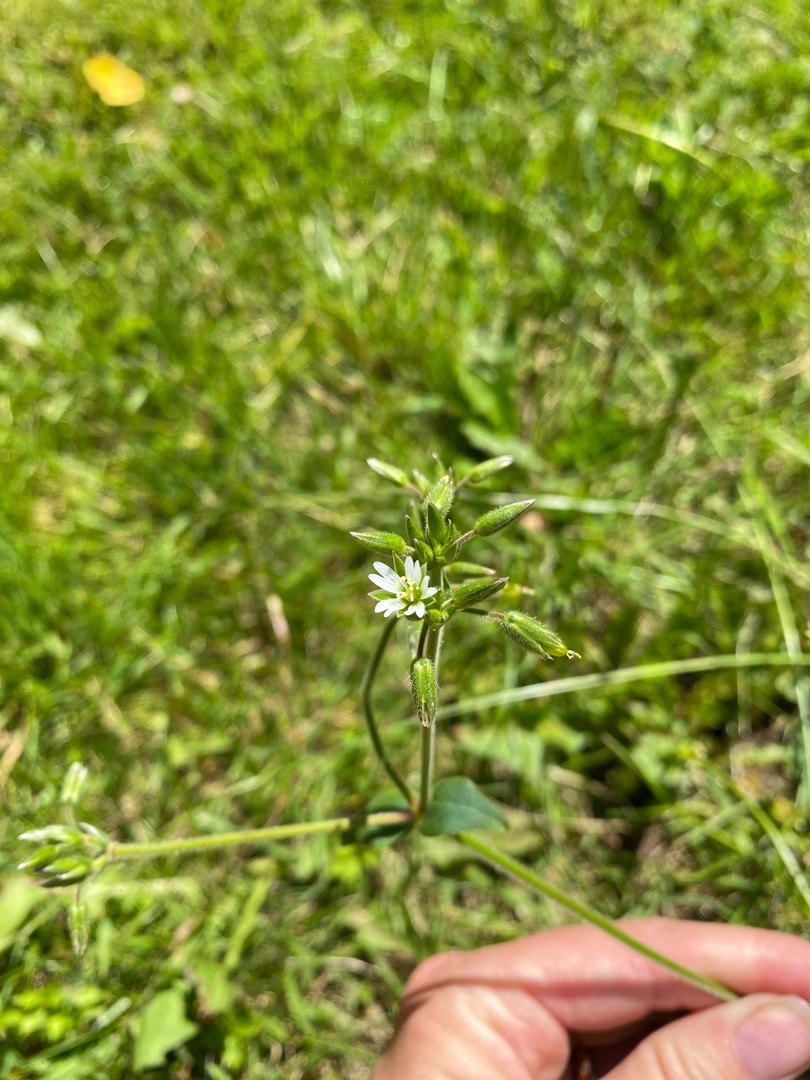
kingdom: Plantae
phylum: Tracheophyta
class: Magnoliopsida
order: Caryophyllales
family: Caryophyllaceae
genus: Cerastium
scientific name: Cerastium fontanum
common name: Almindelig hønsetarm
